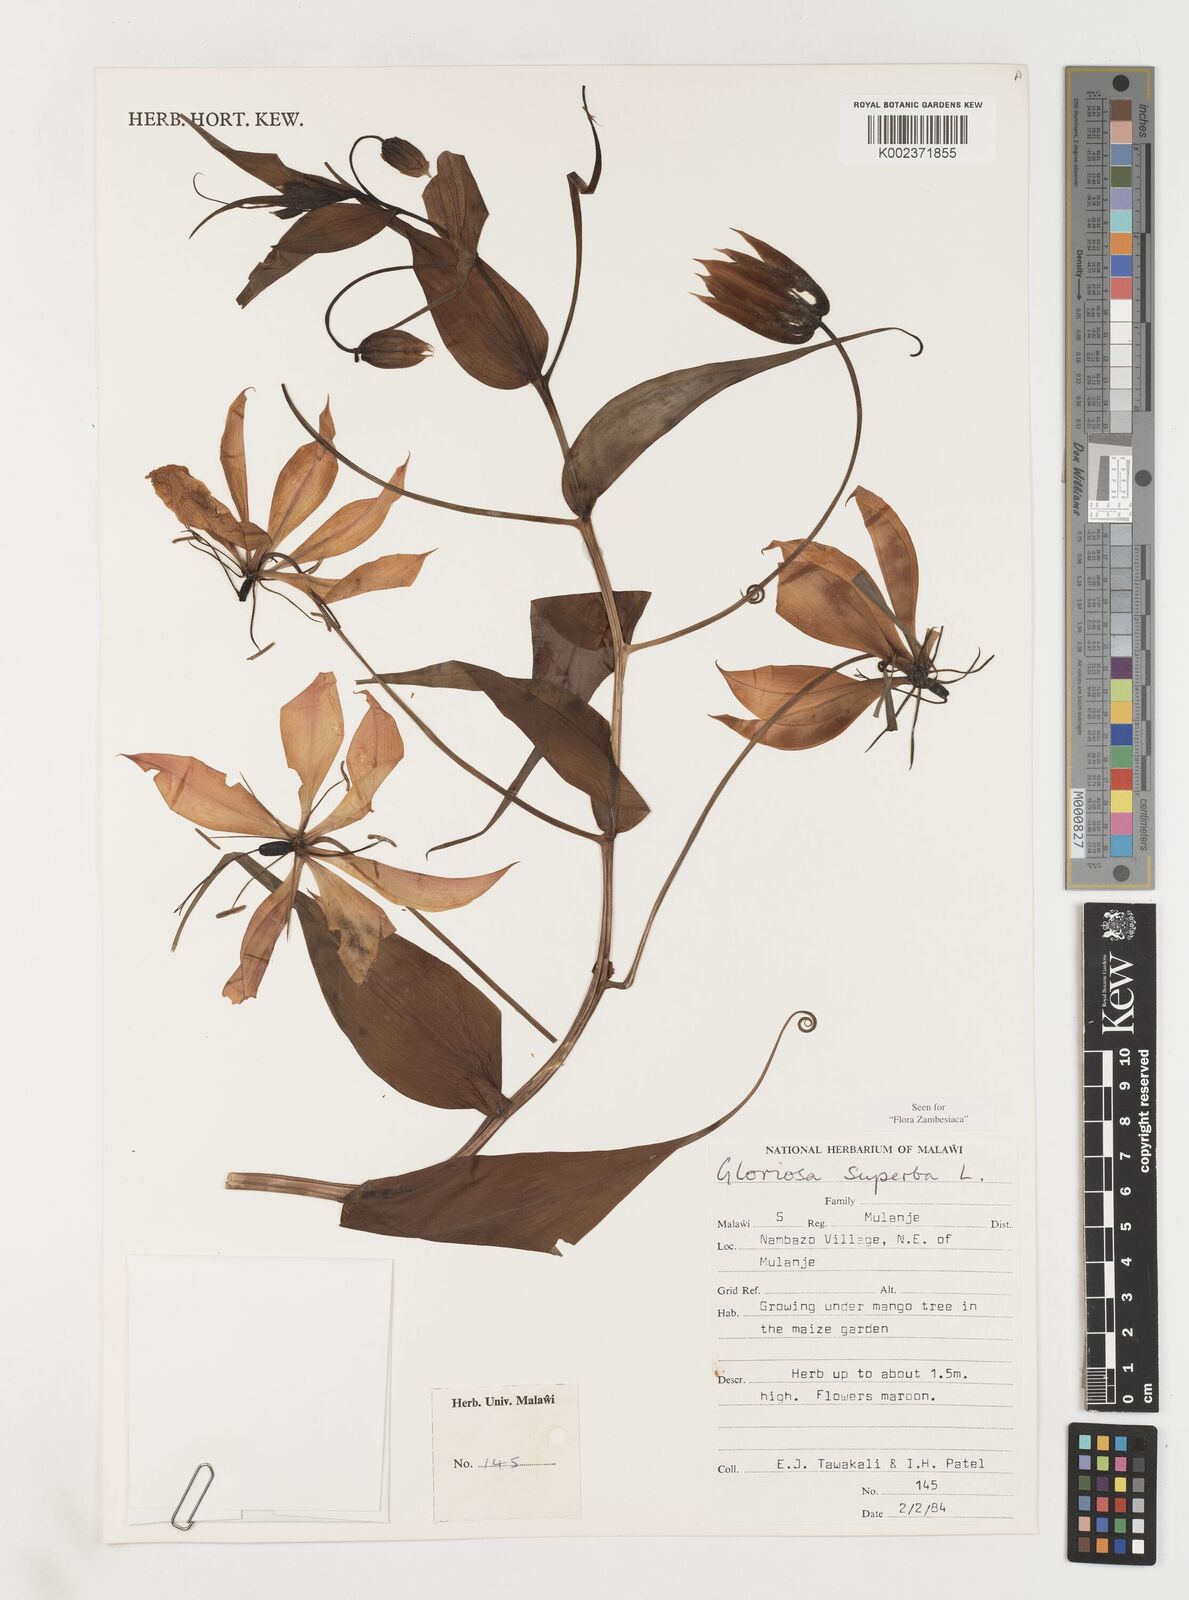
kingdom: Plantae
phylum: Tracheophyta
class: Liliopsida
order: Liliales
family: Colchicaceae
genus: Gloriosa
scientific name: Gloriosa simplex
